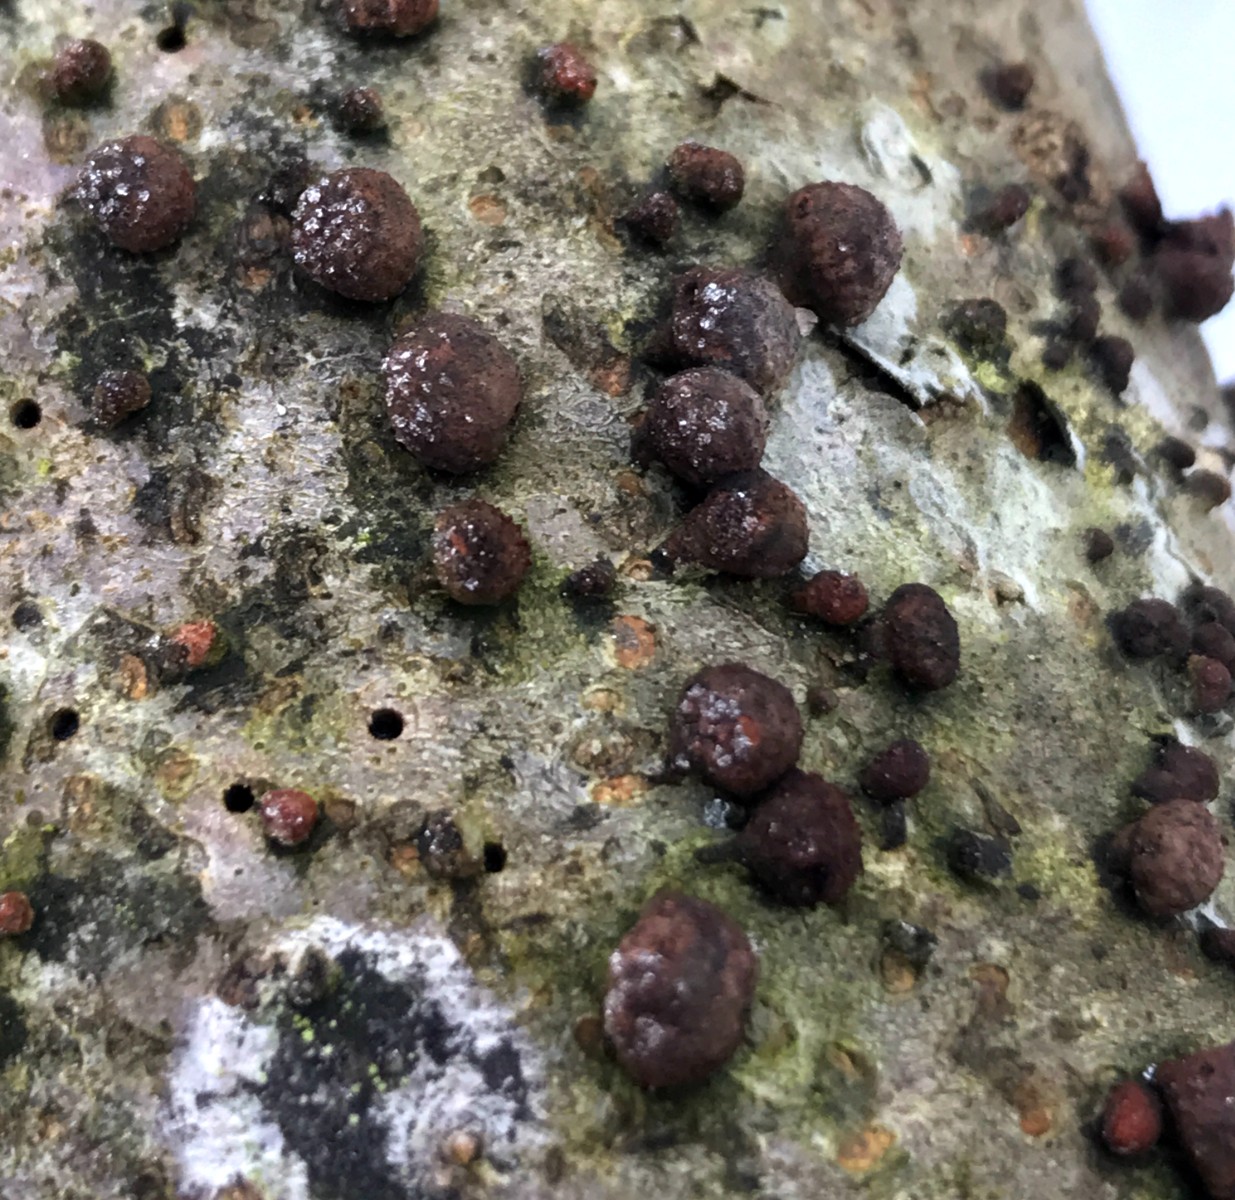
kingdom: Fungi
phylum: Ascomycota
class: Sordariomycetes
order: Xylariales
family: Hypoxylaceae
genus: Hypoxylon
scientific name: Hypoxylon fragiforme
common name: kuljordbær
